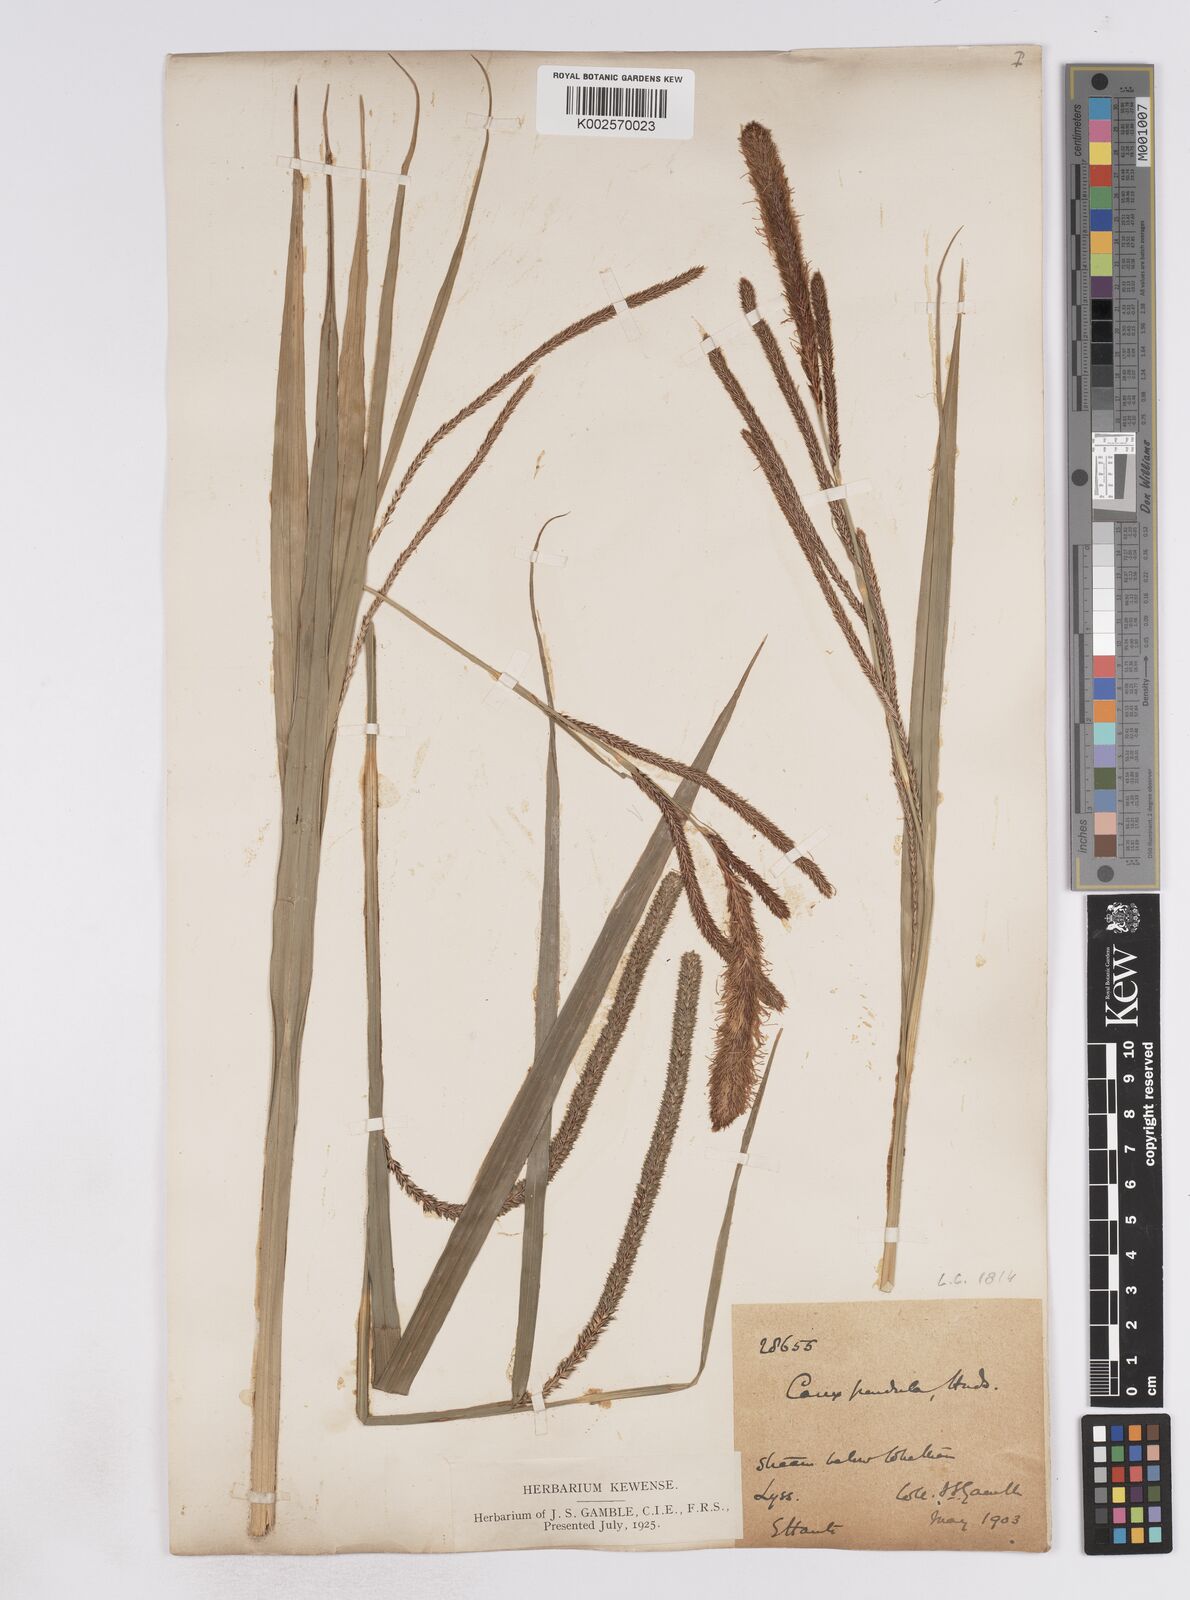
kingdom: Plantae
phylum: Tracheophyta
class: Liliopsida
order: Poales
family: Cyperaceae
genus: Carex
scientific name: Carex pendula
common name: Pendulous sedge
